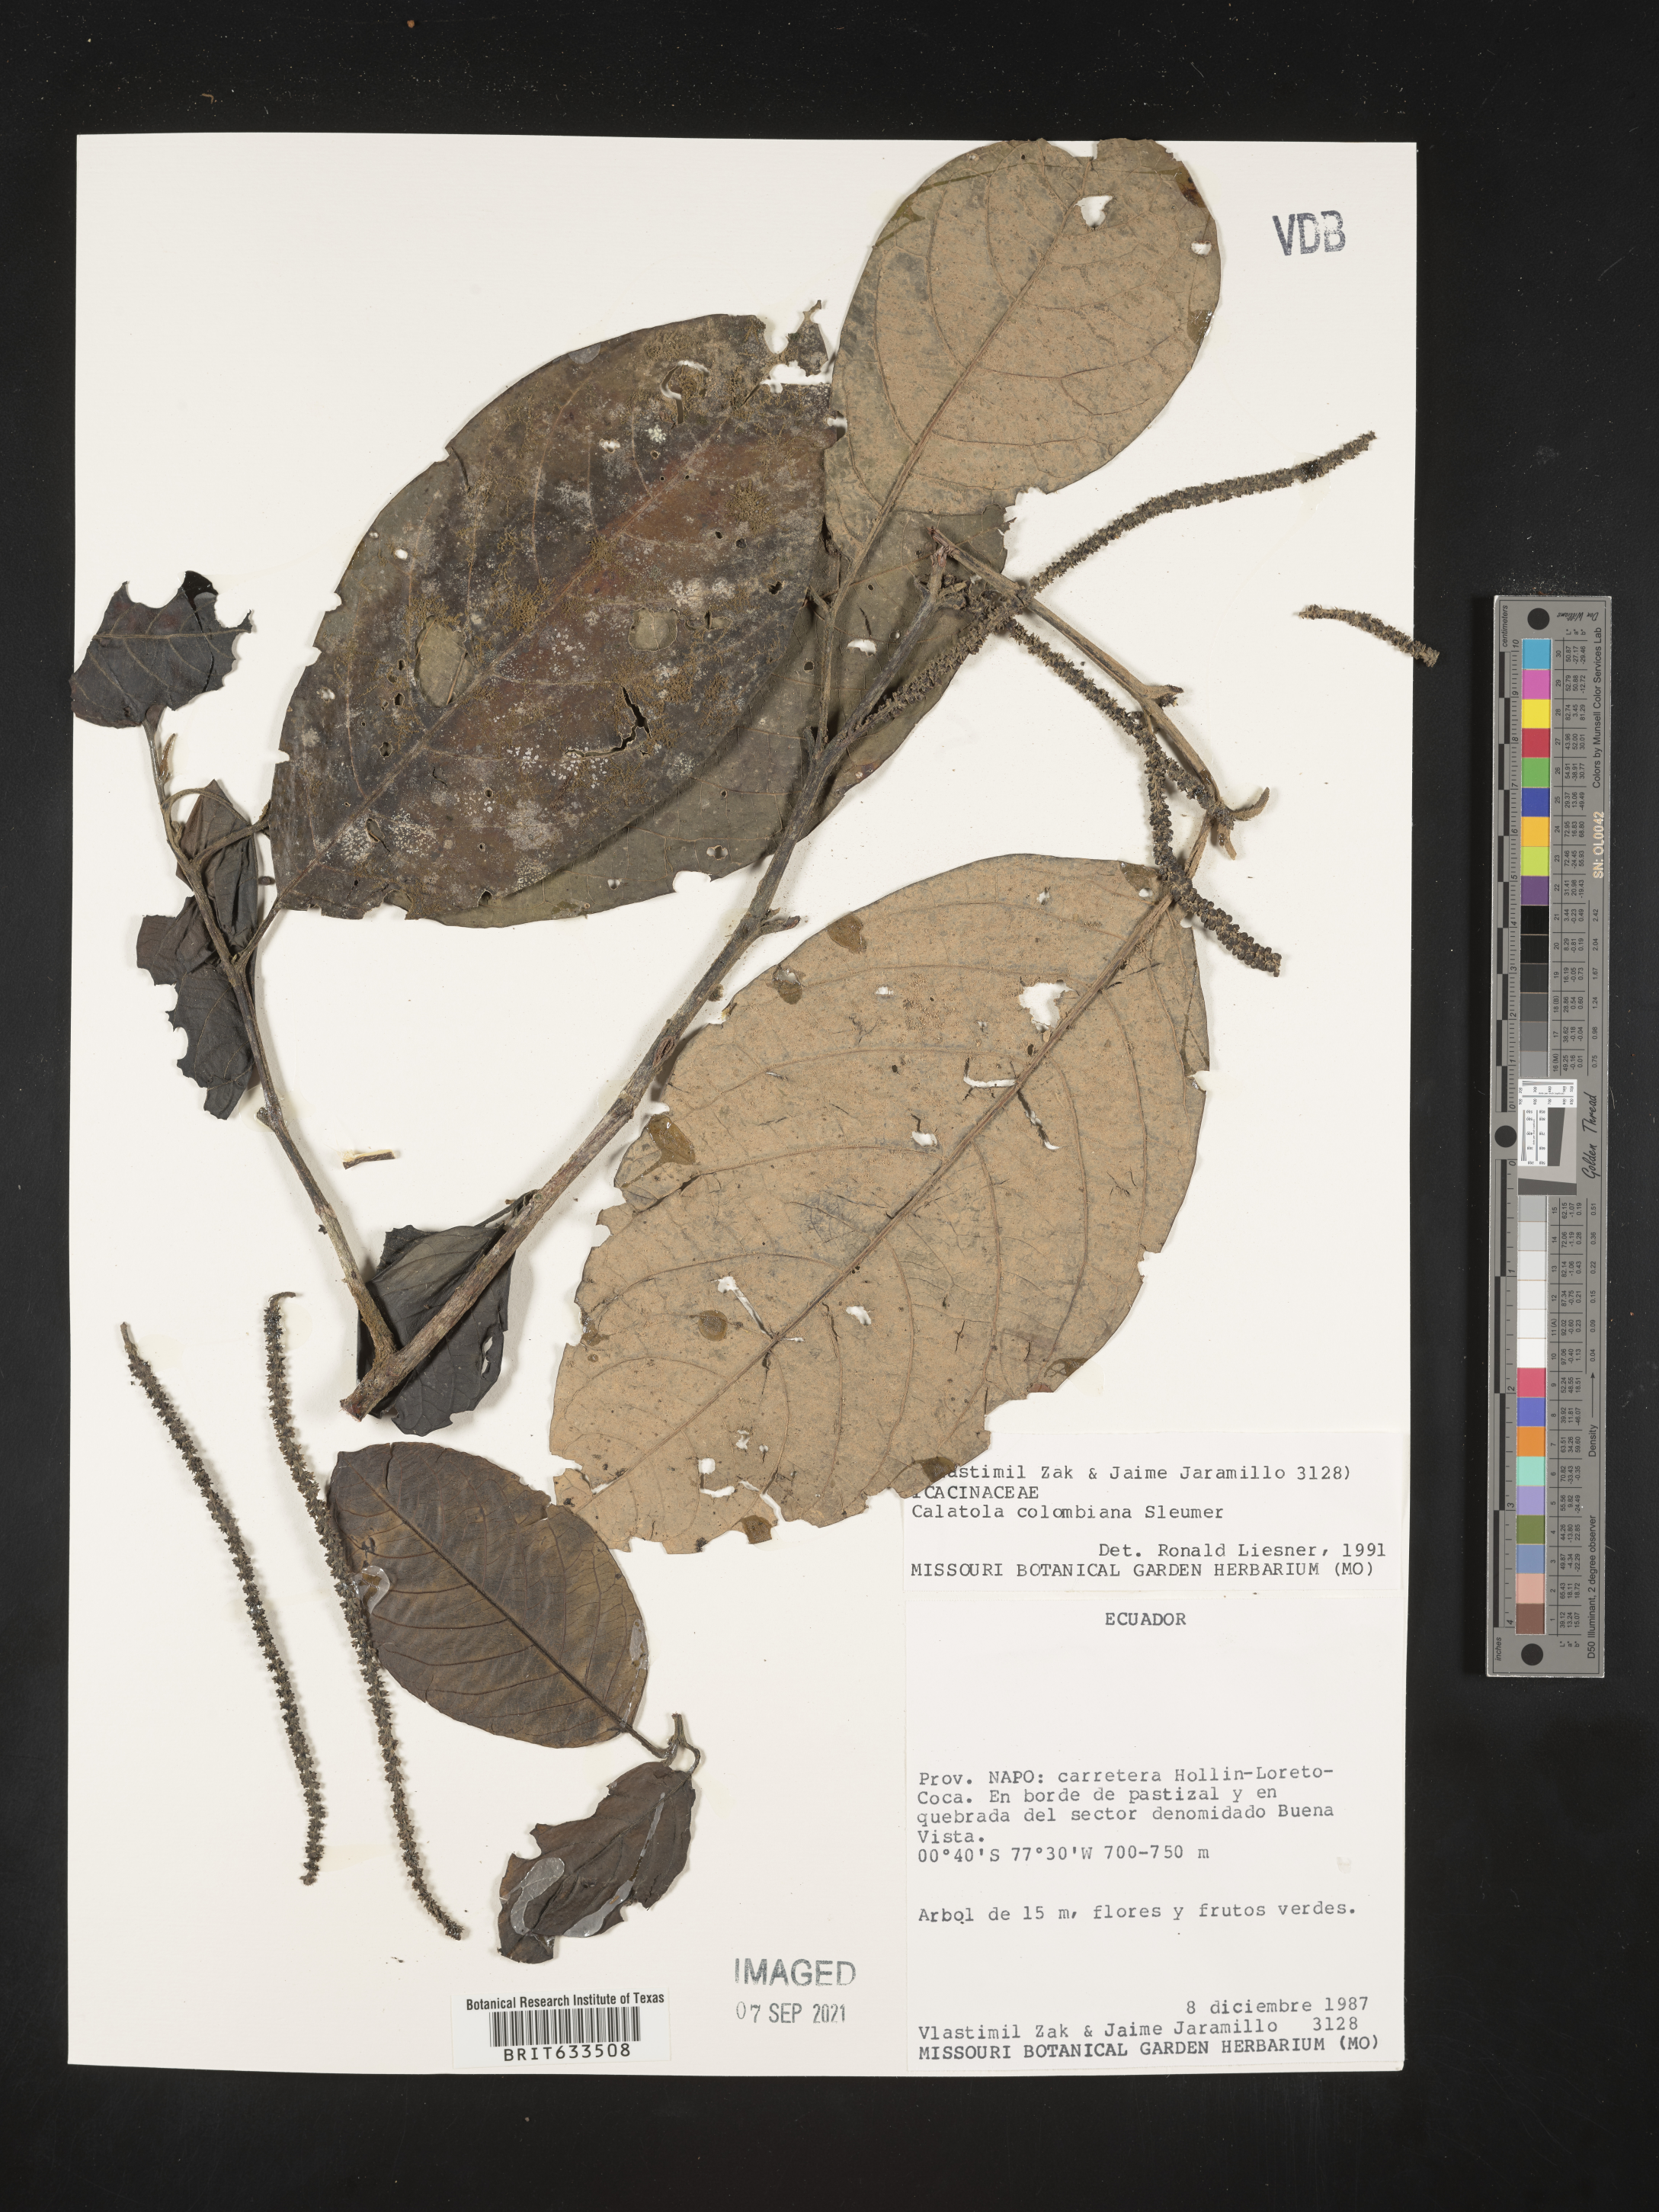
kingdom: Plantae
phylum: Tracheophyta
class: Magnoliopsida
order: Icacinales
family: Icacinaceae
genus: Calatola
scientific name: Calatola
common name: Calatola
